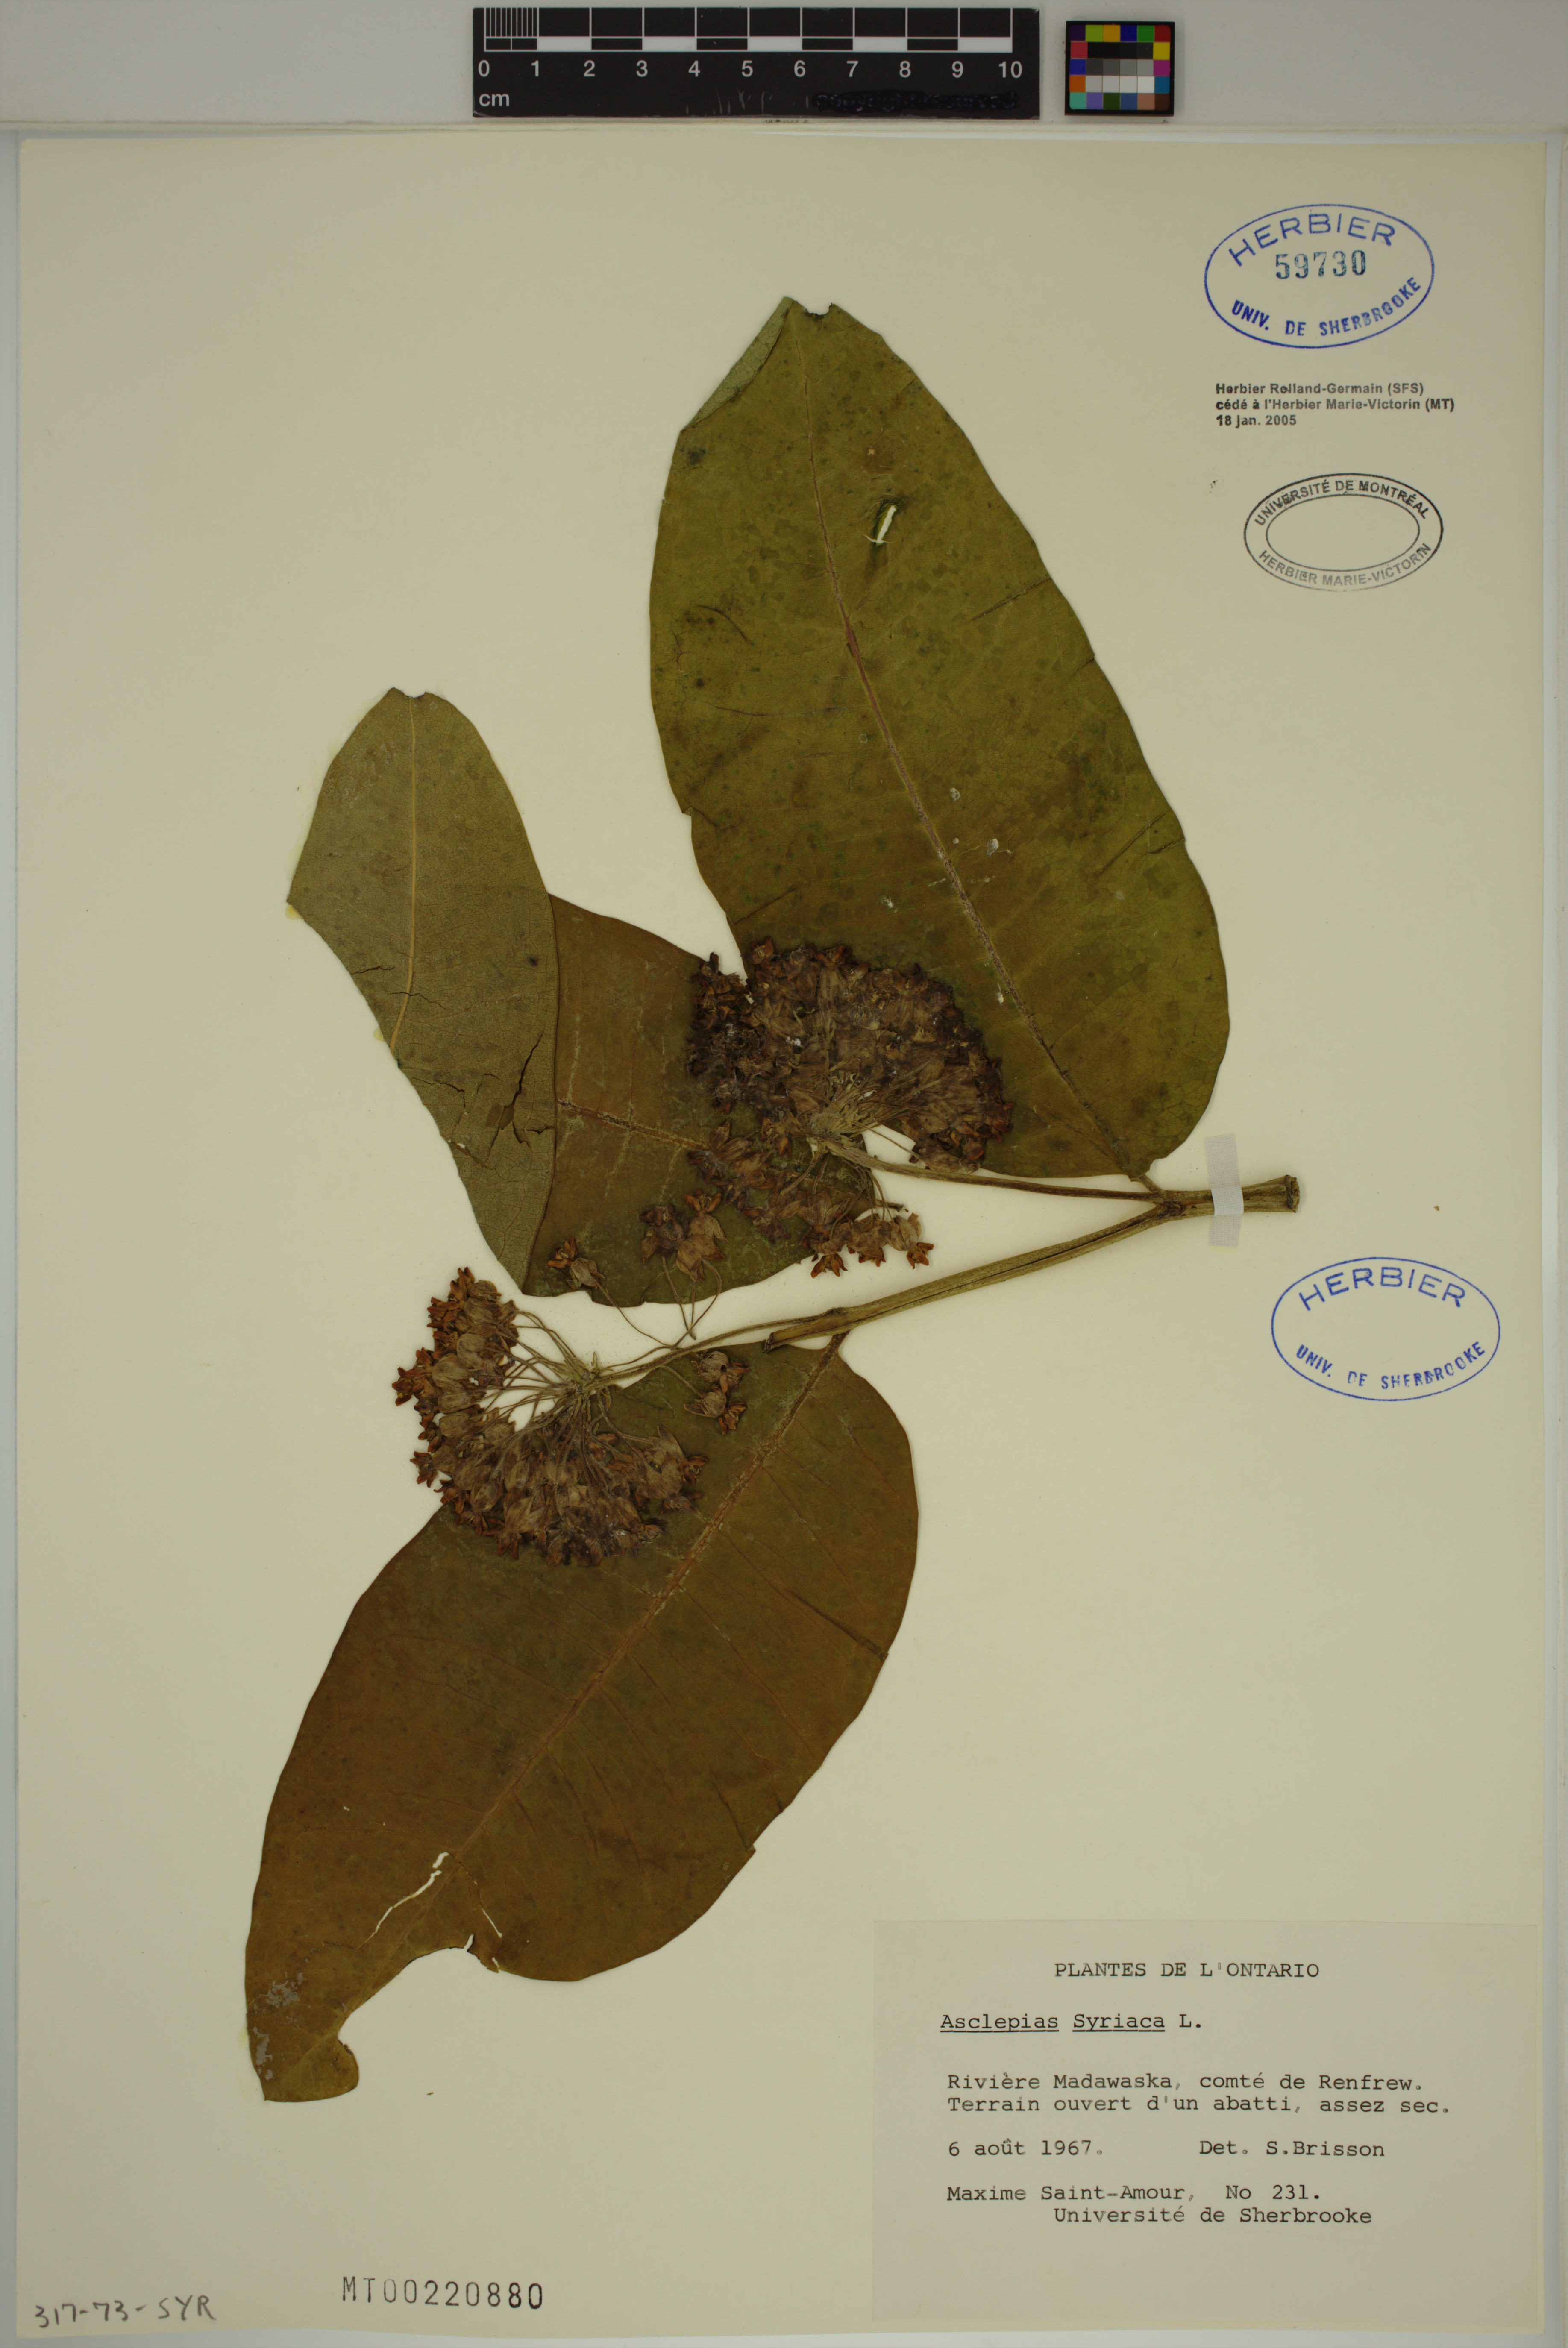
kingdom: Plantae
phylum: Tracheophyta
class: Magnoliopsida
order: Gentianales
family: Apocynaceae
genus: Asclepias
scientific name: Asclepias syriaca
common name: Common milkweed
